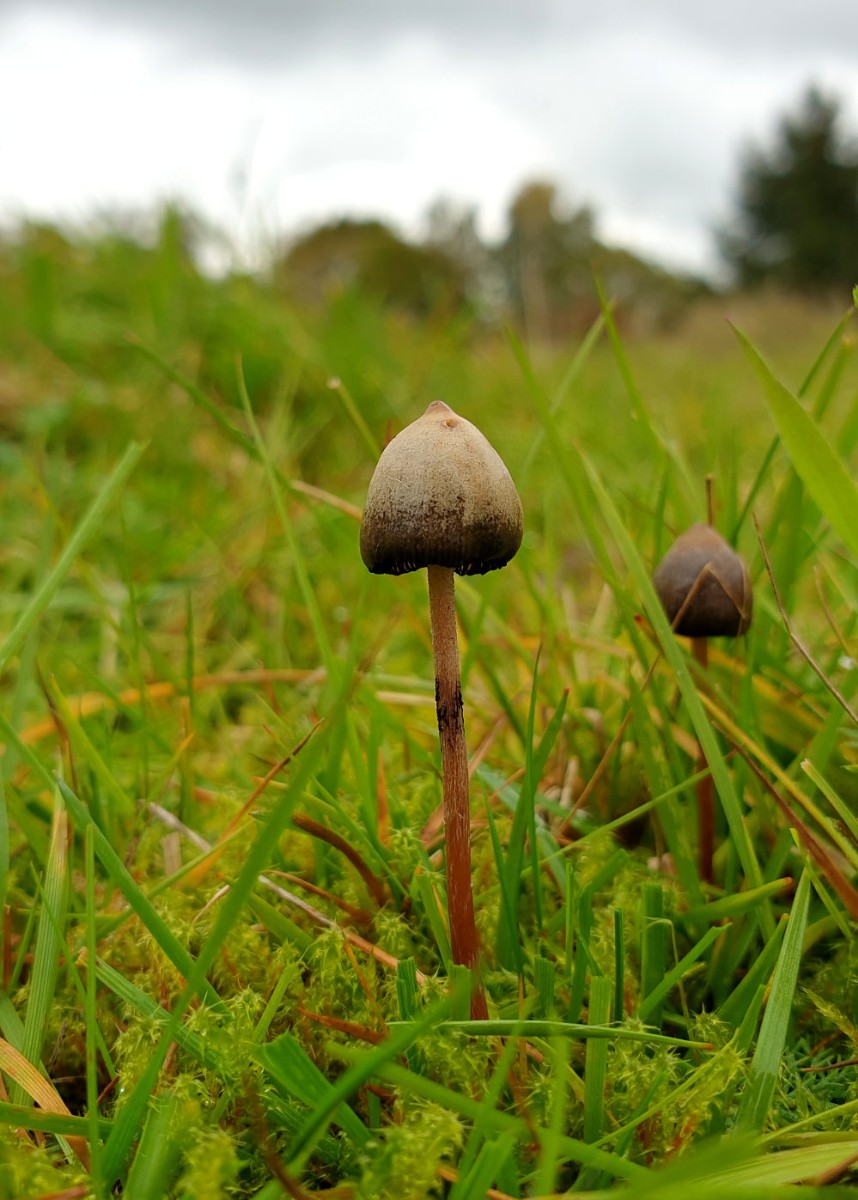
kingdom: Fungi
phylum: Basidiomycota
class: Agaricomycetes
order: Agaricales
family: Hymenogastraceae
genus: Psilocybe
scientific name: Psilocybe semilanceata
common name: spids nøgenhat
